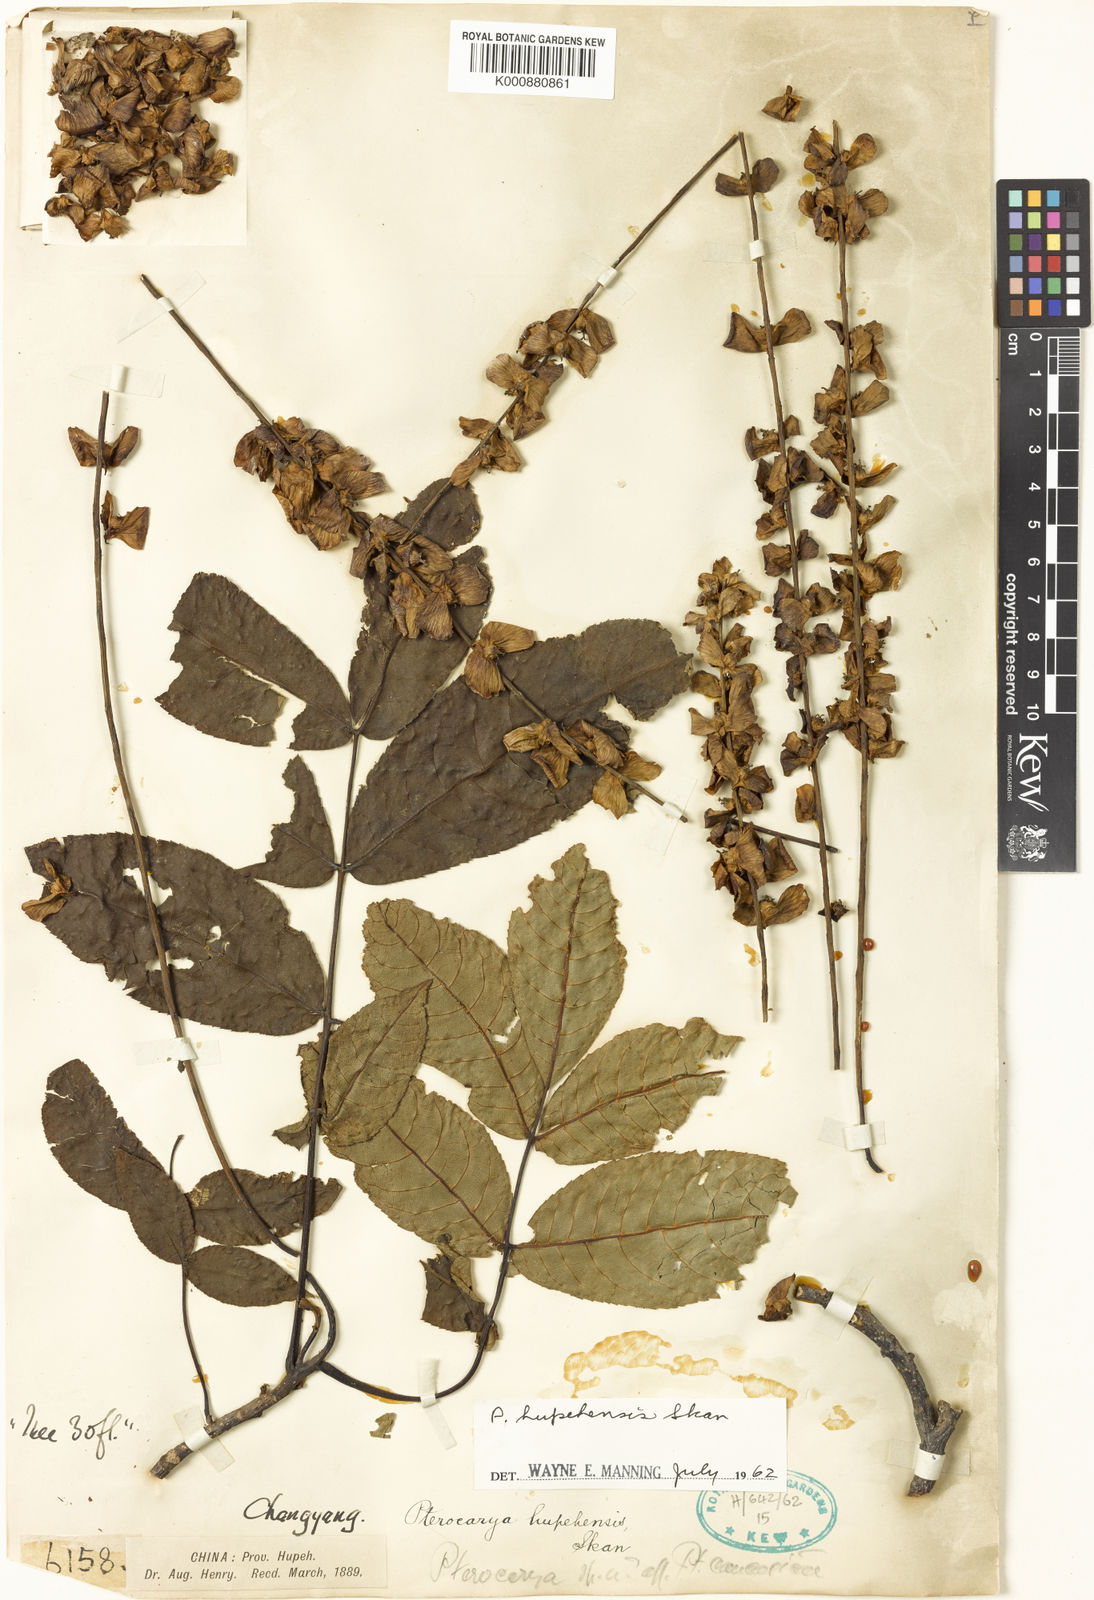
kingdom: Plantae
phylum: Tracheophyta
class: Magnoliopsida
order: Fagales
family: Juglandaceae
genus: Pterocarya
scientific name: Pterocarya hupehensis
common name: Hubei wingnut
